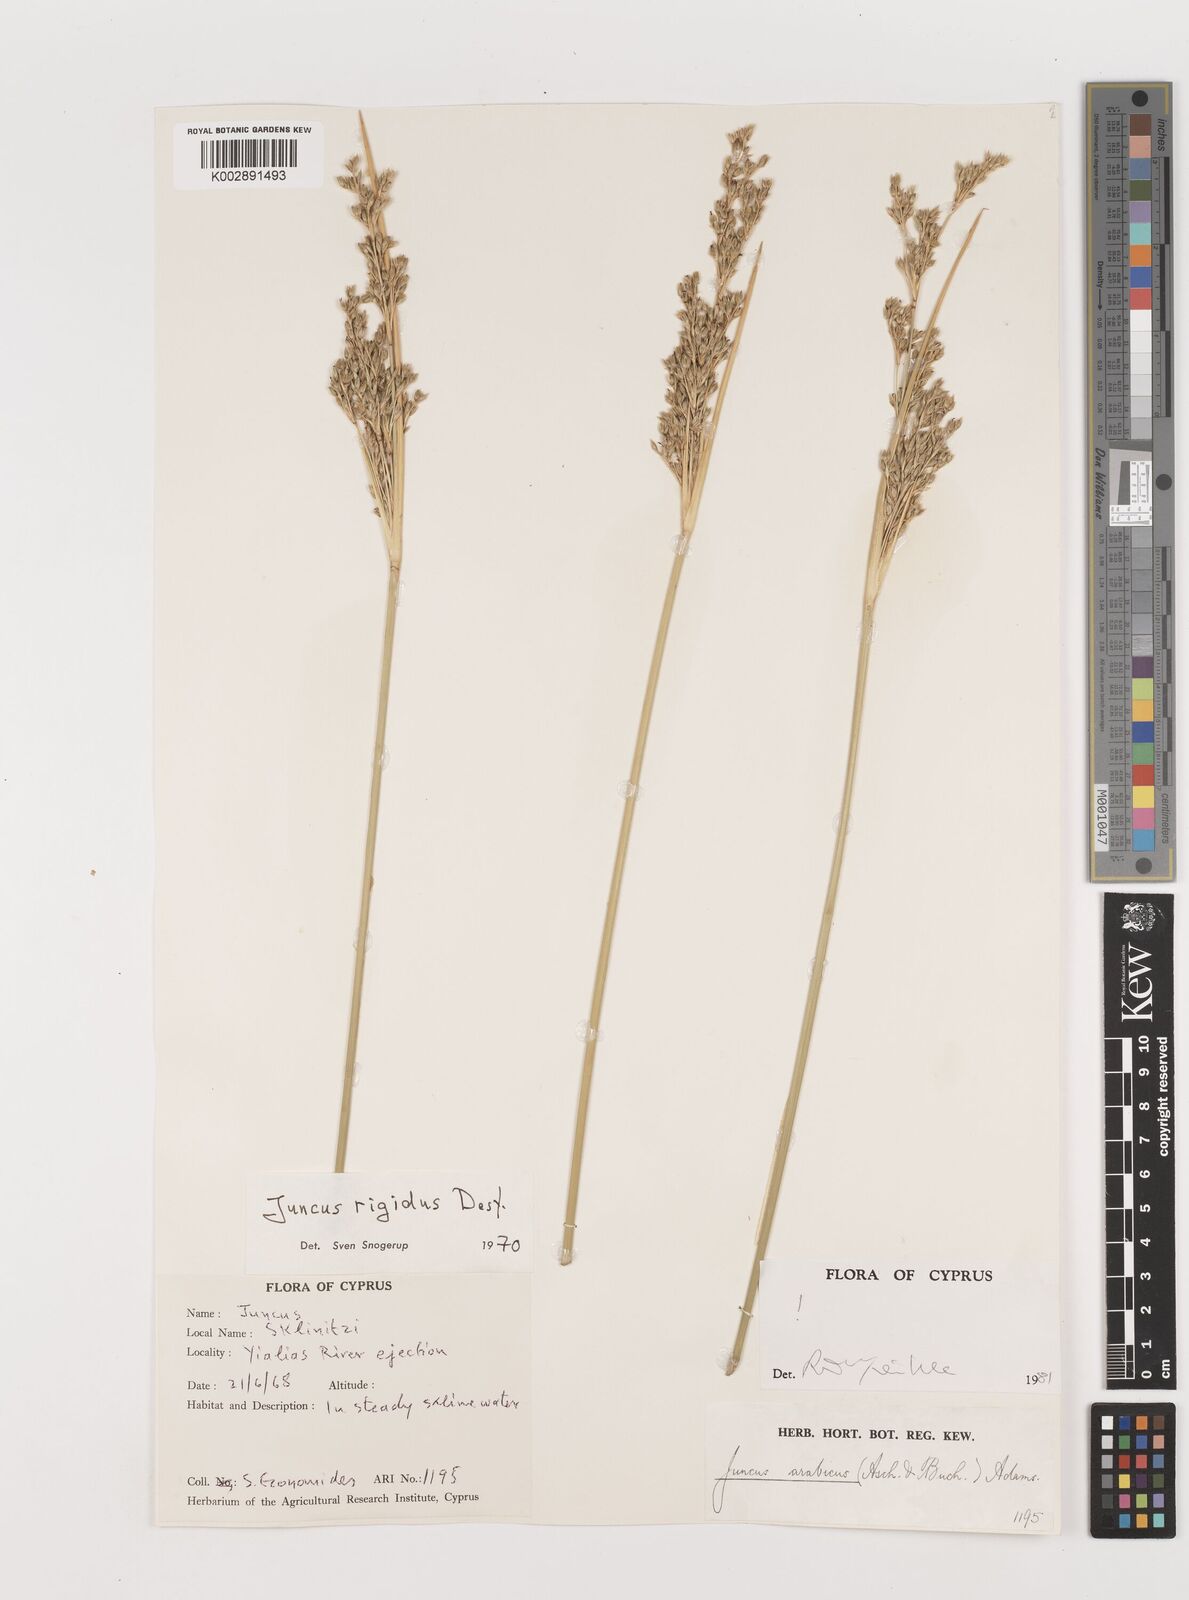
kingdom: Plantae
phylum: Tracheophyta
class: Liliopsida
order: Poales
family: Juncaceae
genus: Juncus
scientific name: Juncus rigidus
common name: Hard sea rush
